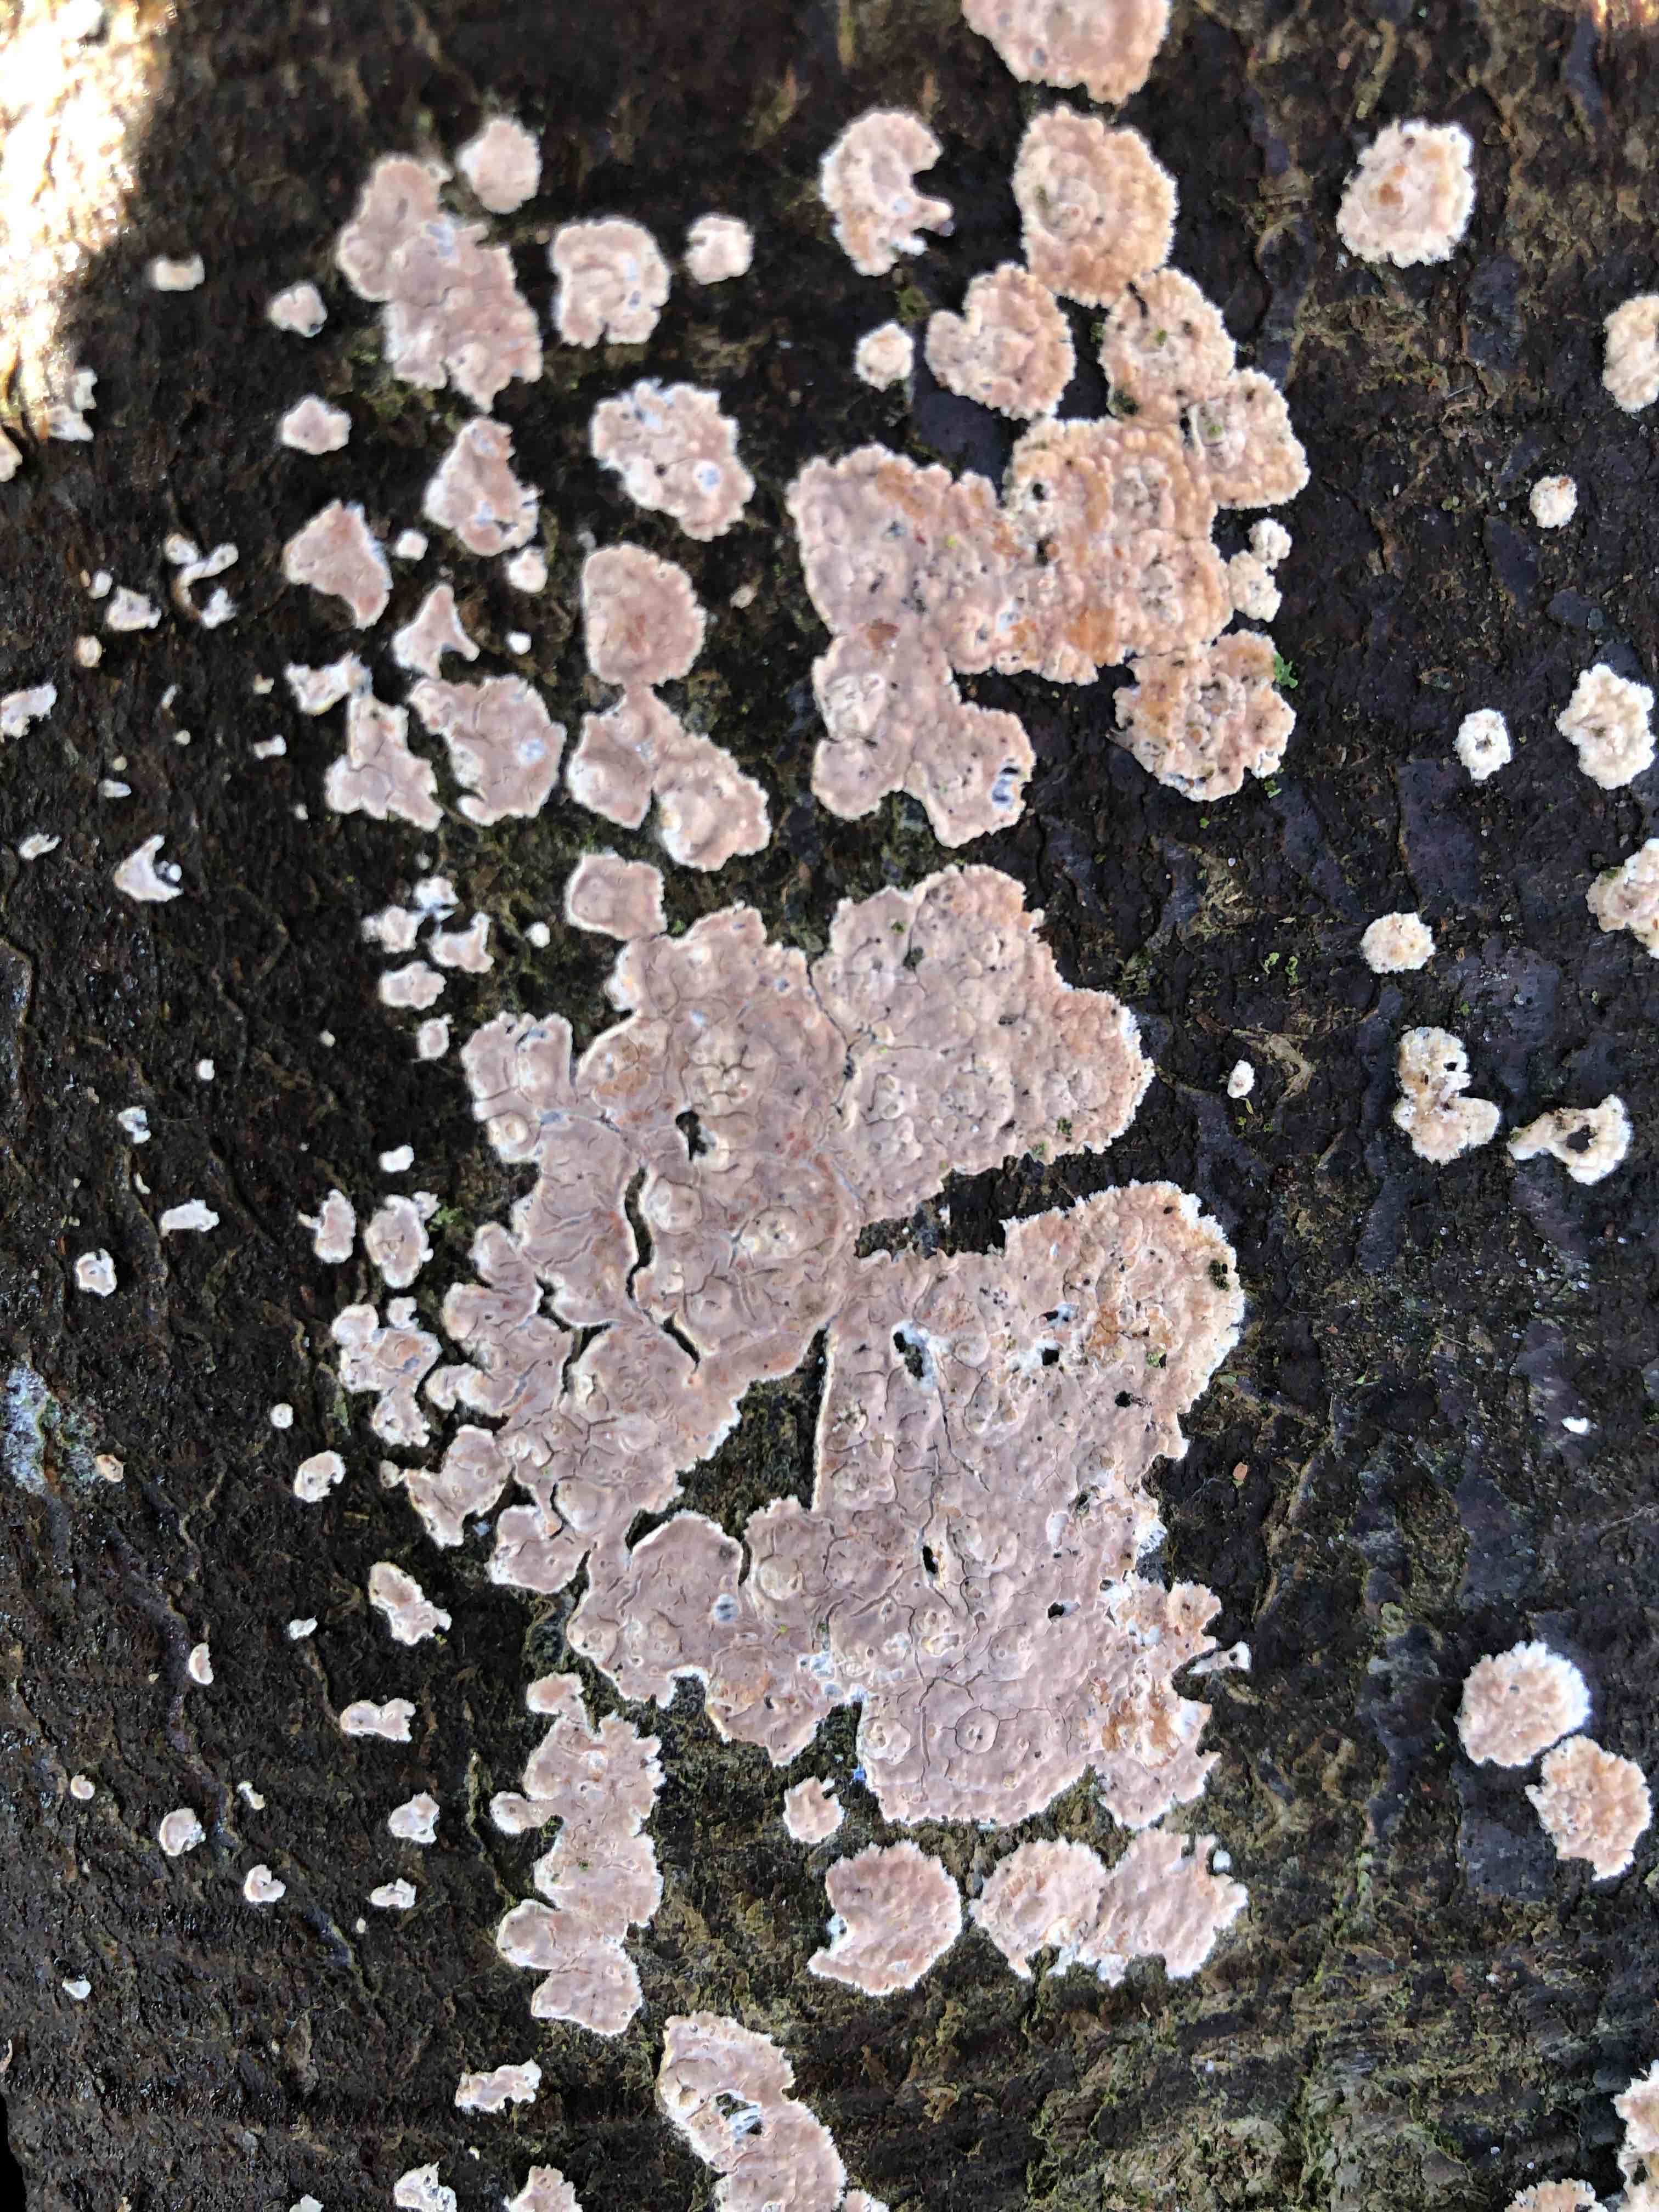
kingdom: Fungi
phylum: Basidiomycota
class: Agaricomycetes
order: Agaricales
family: Physalacriaceae
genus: Cylindrobasidium
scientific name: Cylindrobasidium evolvens
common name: sprækkehinde
